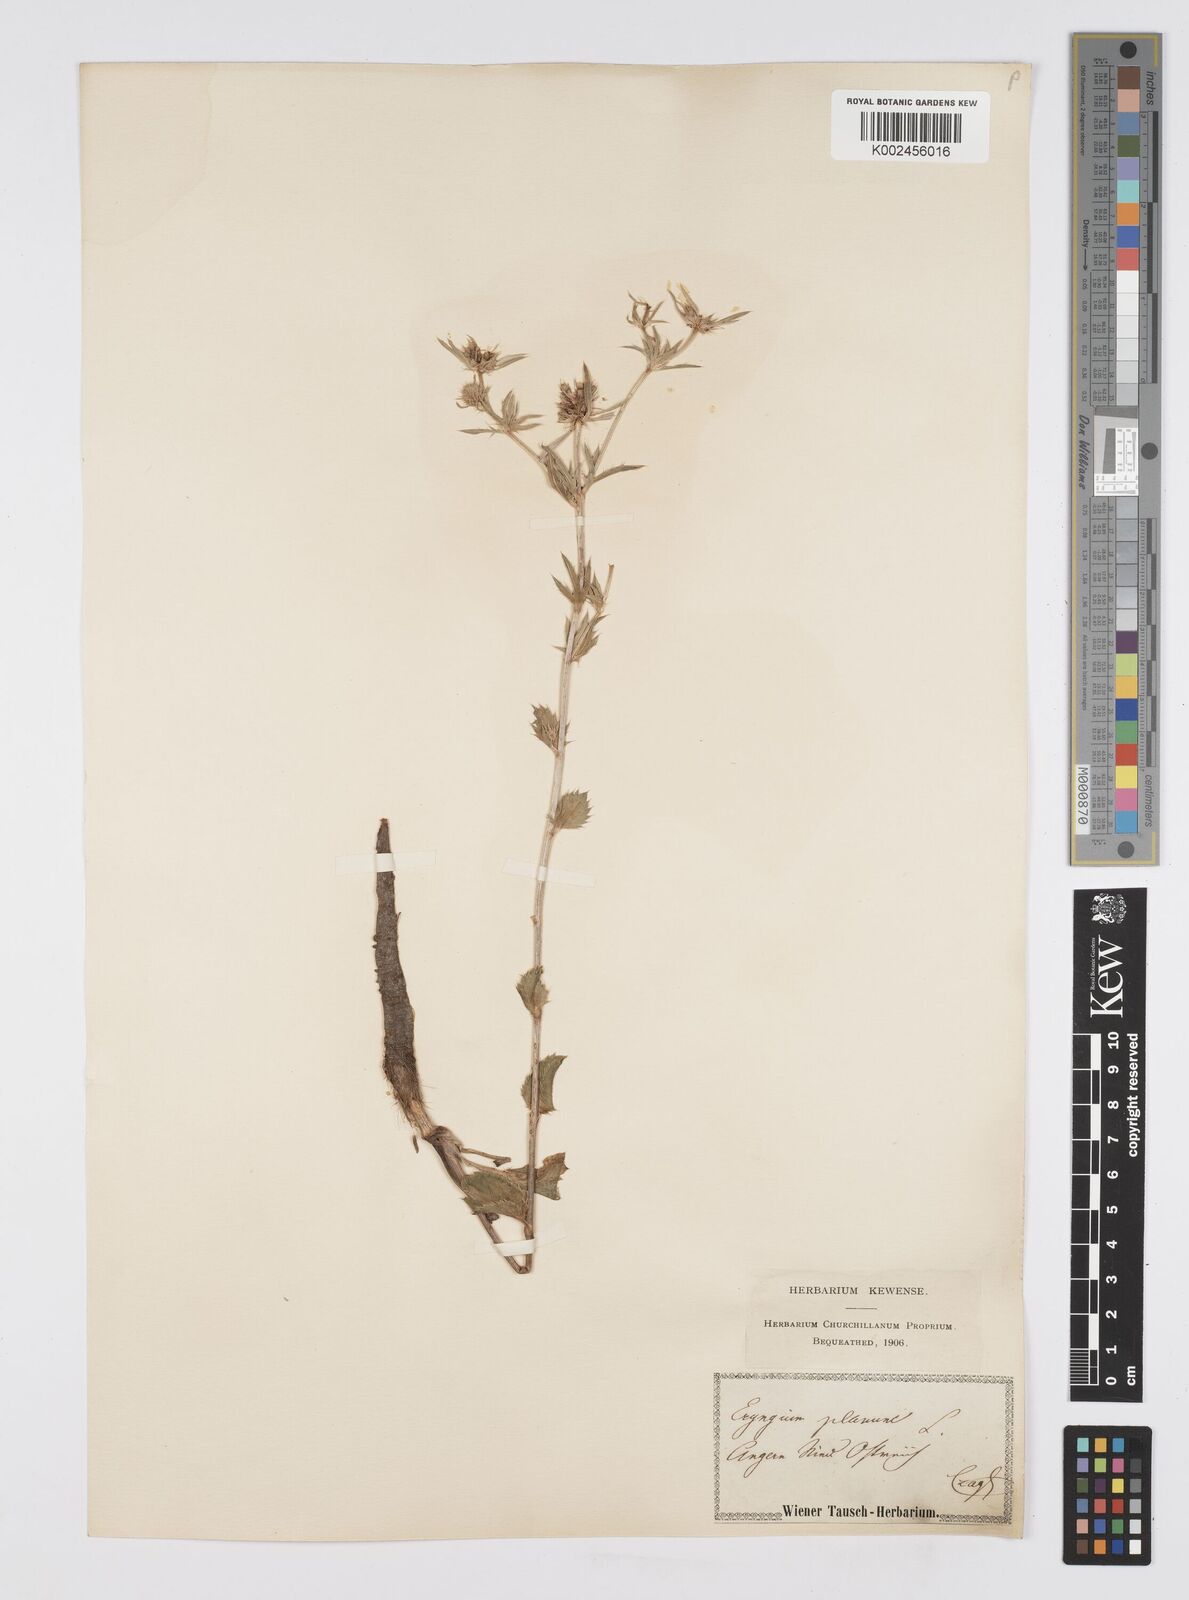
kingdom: Plantae
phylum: Tracheophyta
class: Magnoliopsida
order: Apiales
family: Apiaceae
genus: Eryngium
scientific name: Eryngium planum
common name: Blue eryngo
